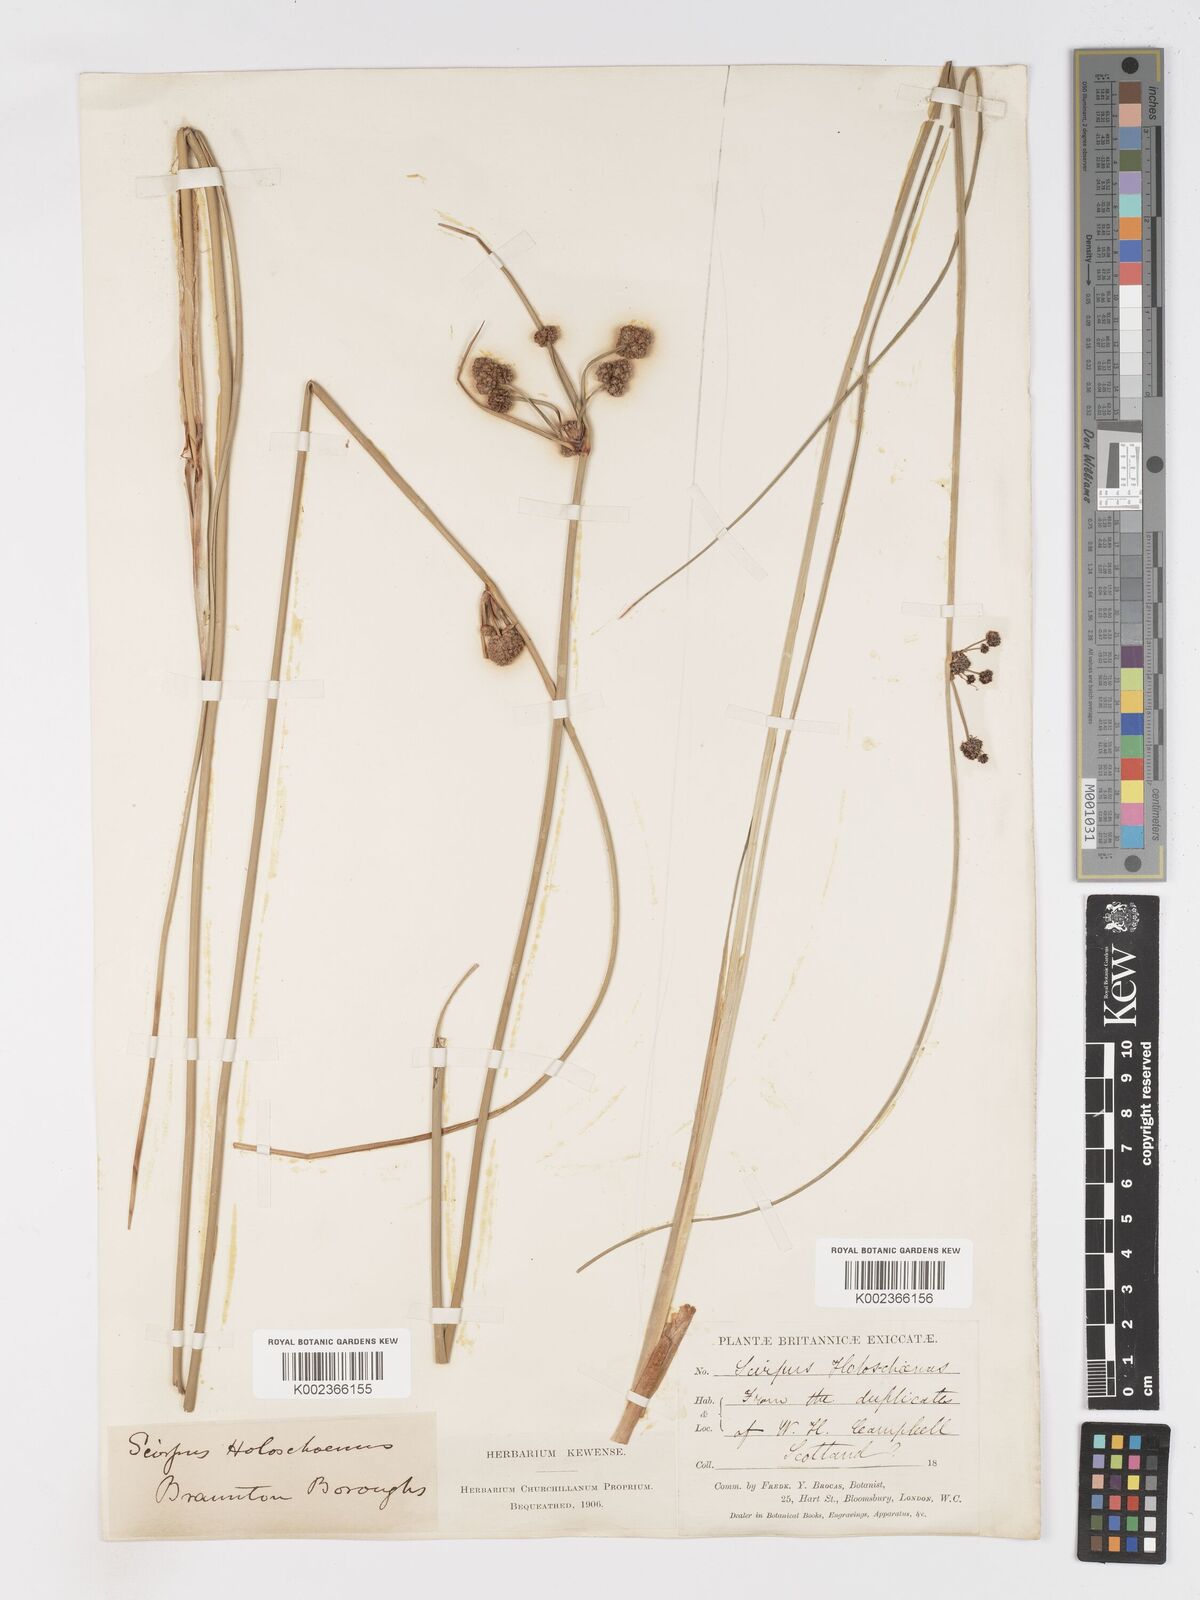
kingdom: Plantae
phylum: Tracheophyta
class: Liliopsida
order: Poales
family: Cyperaceae
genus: Scirpoides
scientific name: Scirpoides holoschoenus
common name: Round-headed club-rush
